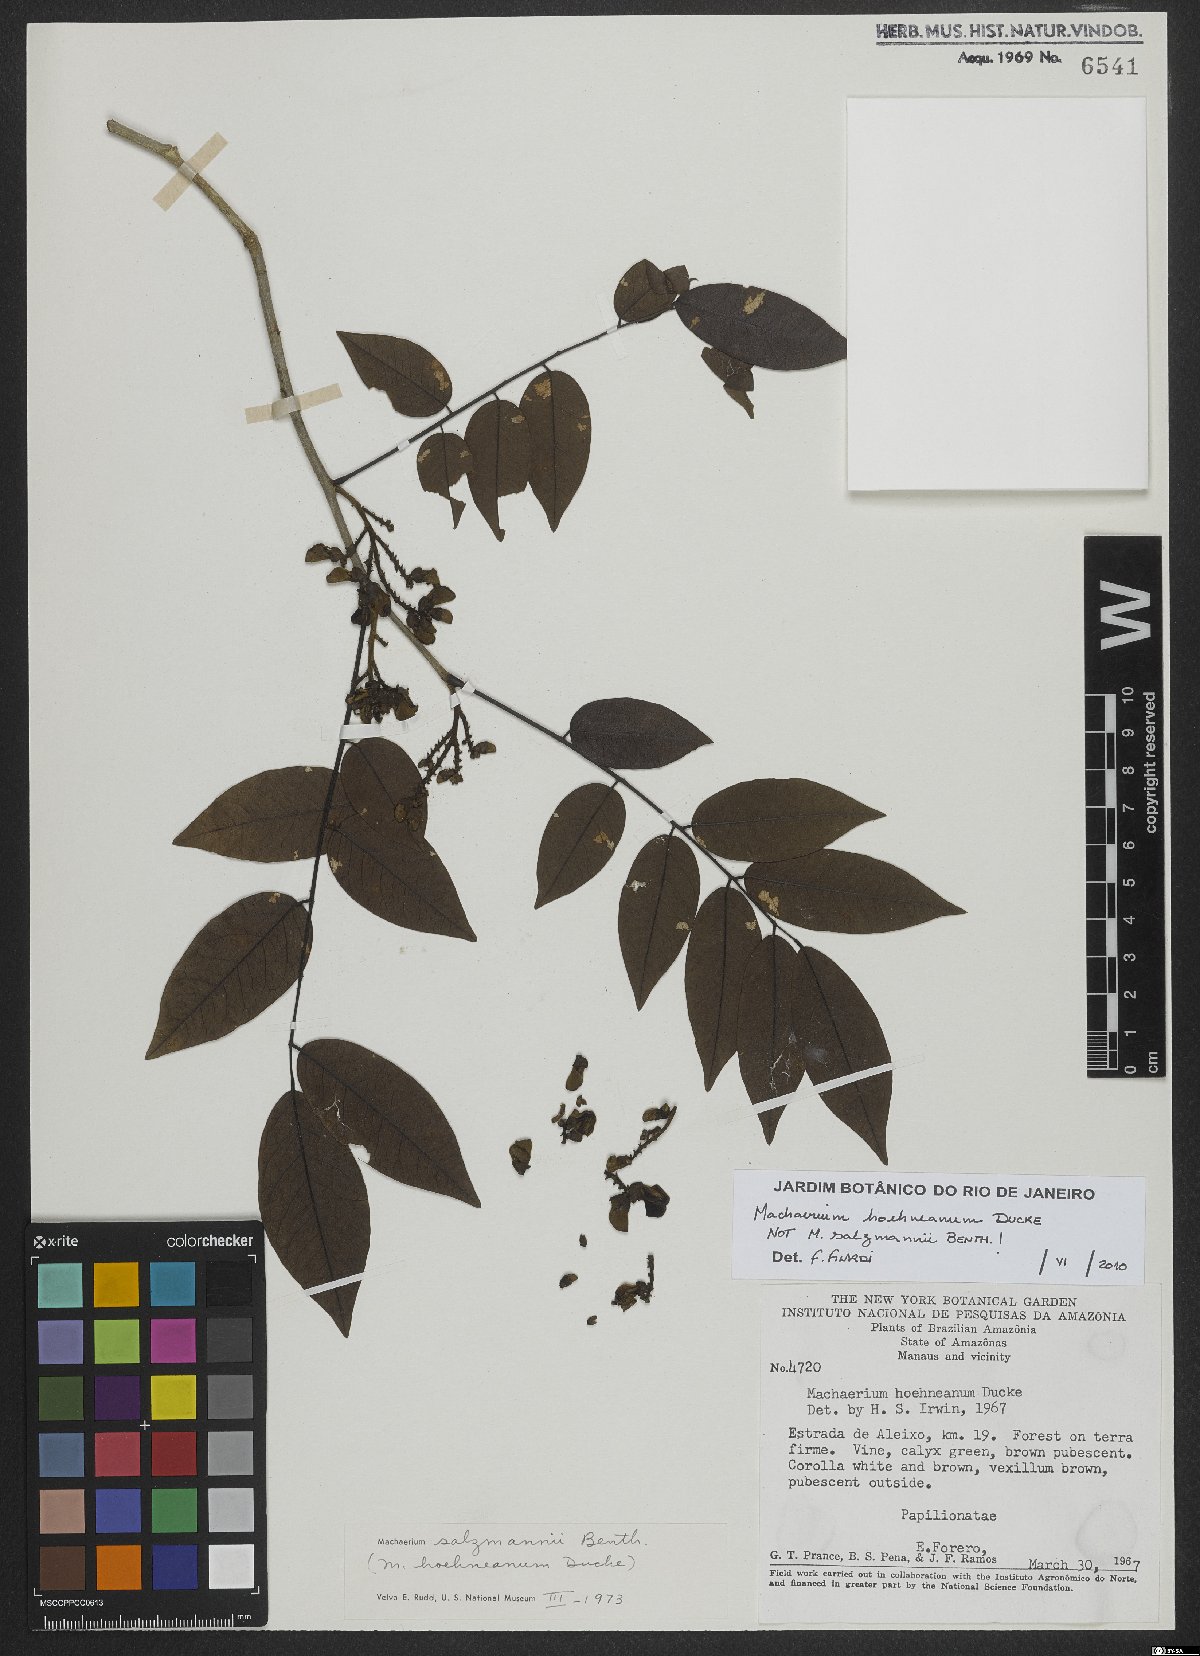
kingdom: Plantae
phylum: Tracheophyta
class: Magnoliopsida
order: Fabales
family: Fabaceae
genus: Machaerium
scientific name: Machaerium hoehneanum
